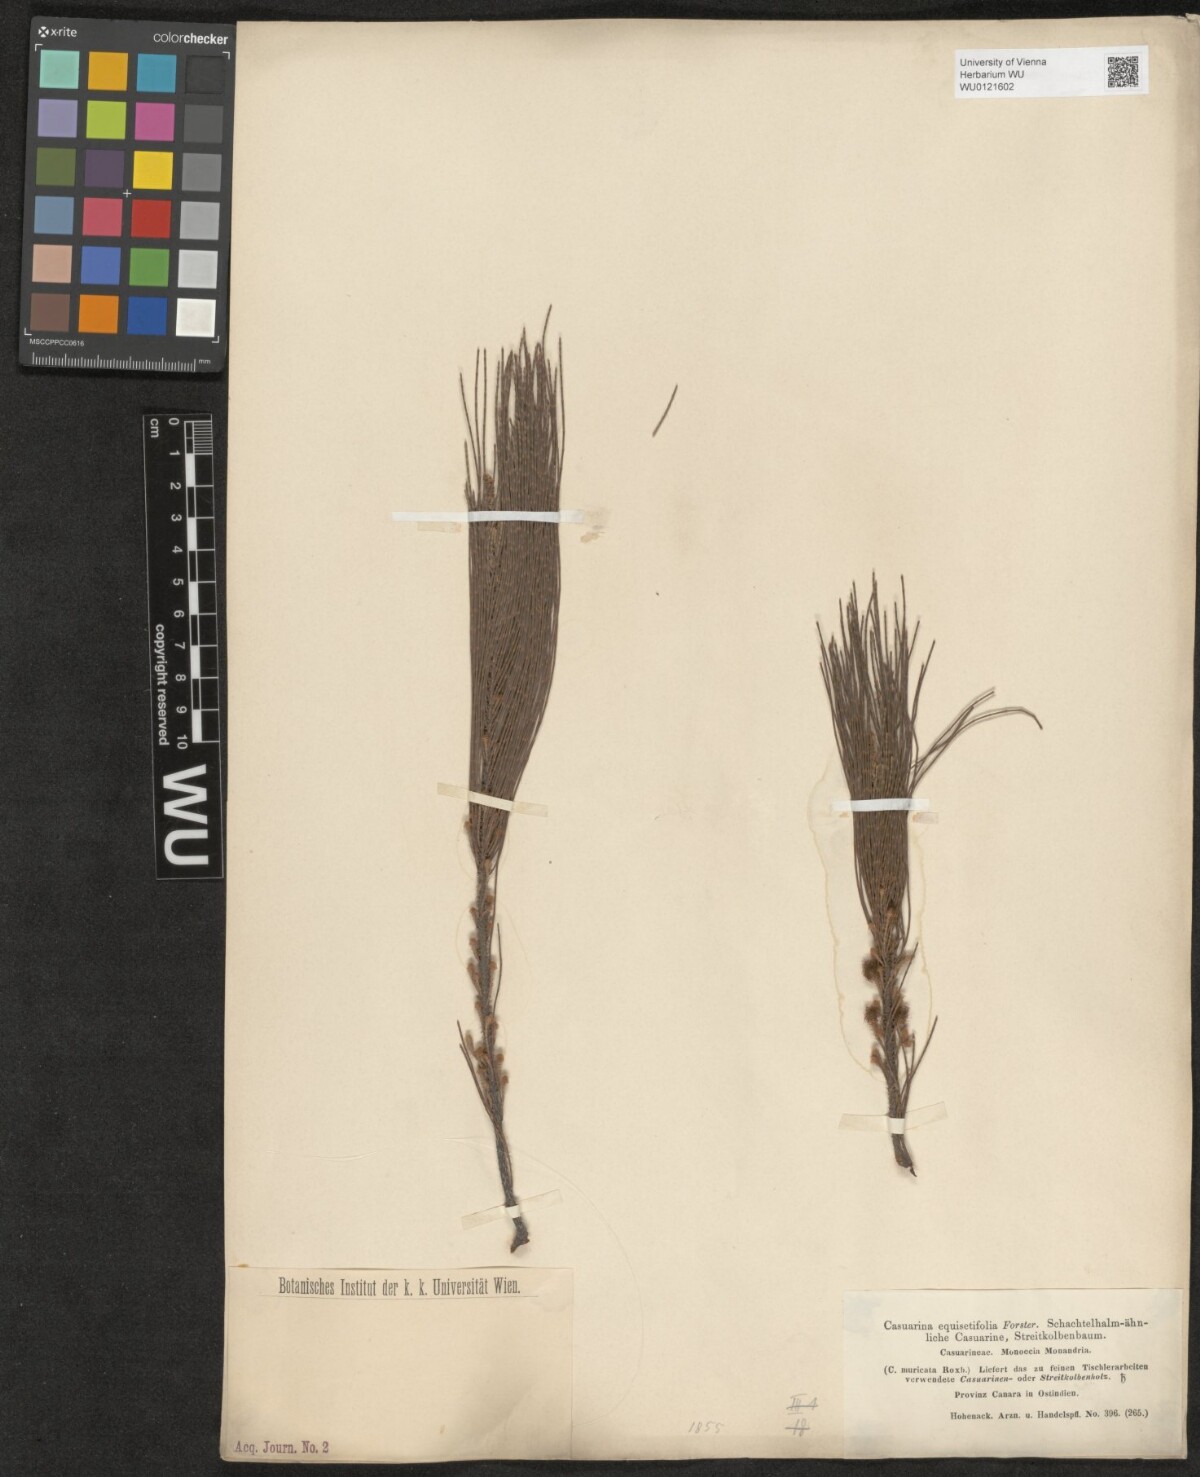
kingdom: Plantae
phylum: Tracheophyta
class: Magnoliopsida
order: Fagales
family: Casuarinaceae
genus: Casuarina
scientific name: Casuarina equisetifolia
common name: Beach sheoak
